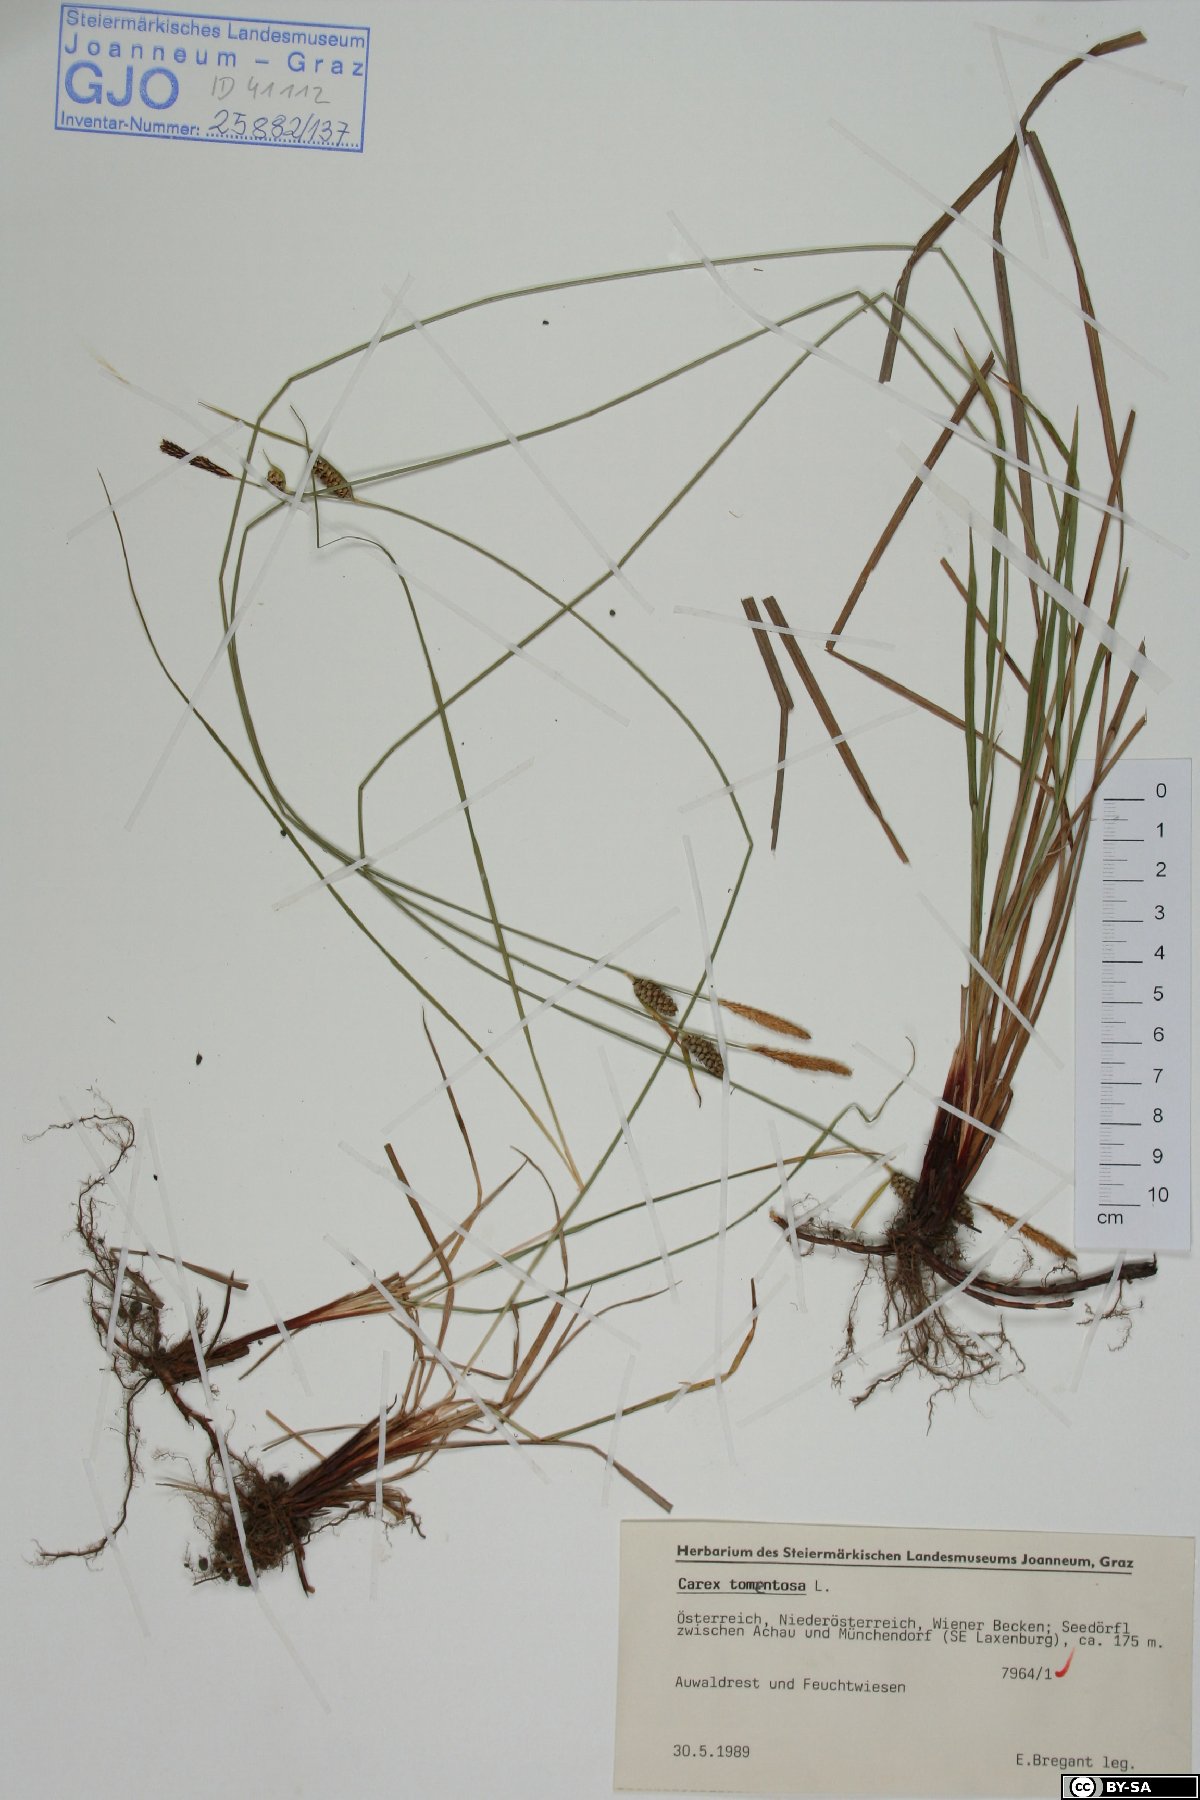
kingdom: Plantae
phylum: Tracheophyta
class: Liliopsida
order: Poales
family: Cyperaceae
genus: Carex
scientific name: Carex tomentosa
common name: Downy-fruited sedge
